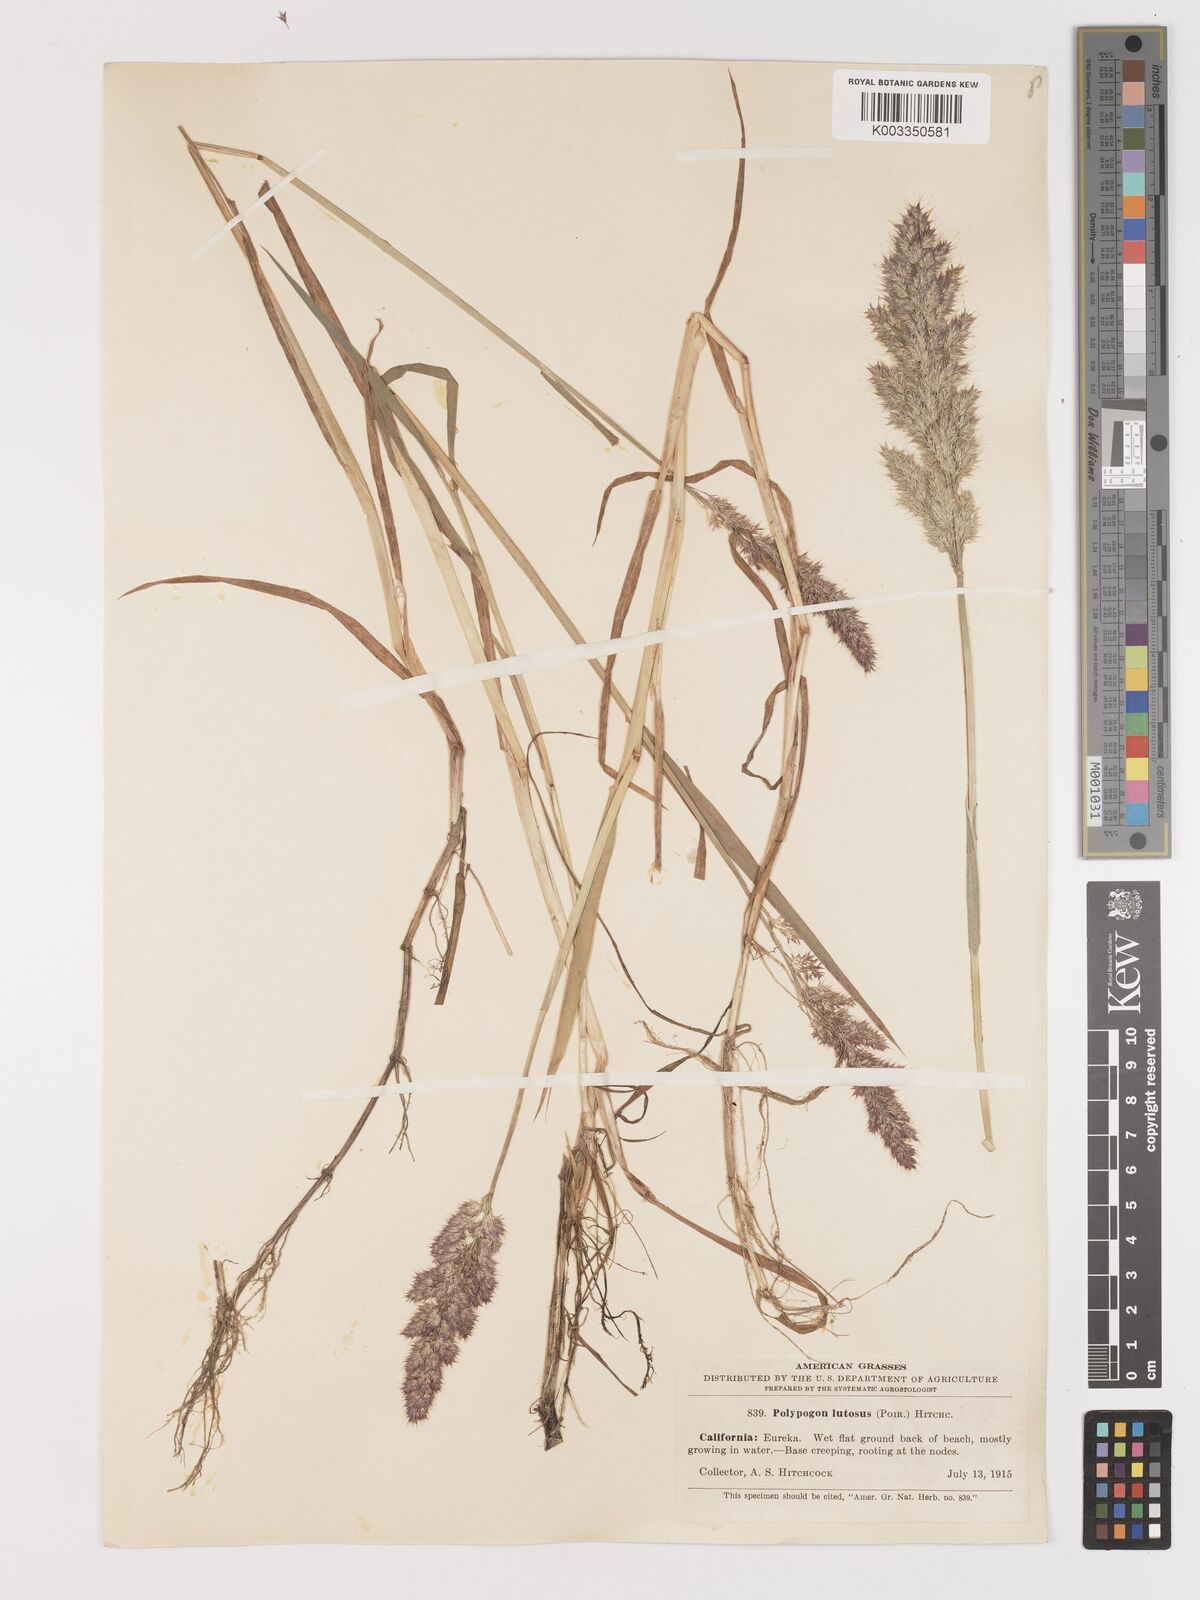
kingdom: Plantae
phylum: Tracheophyta
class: Liliopsida
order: Poales
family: Poaceae
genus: Agropogon
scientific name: Agropogon lutosus
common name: Coast agropogon
